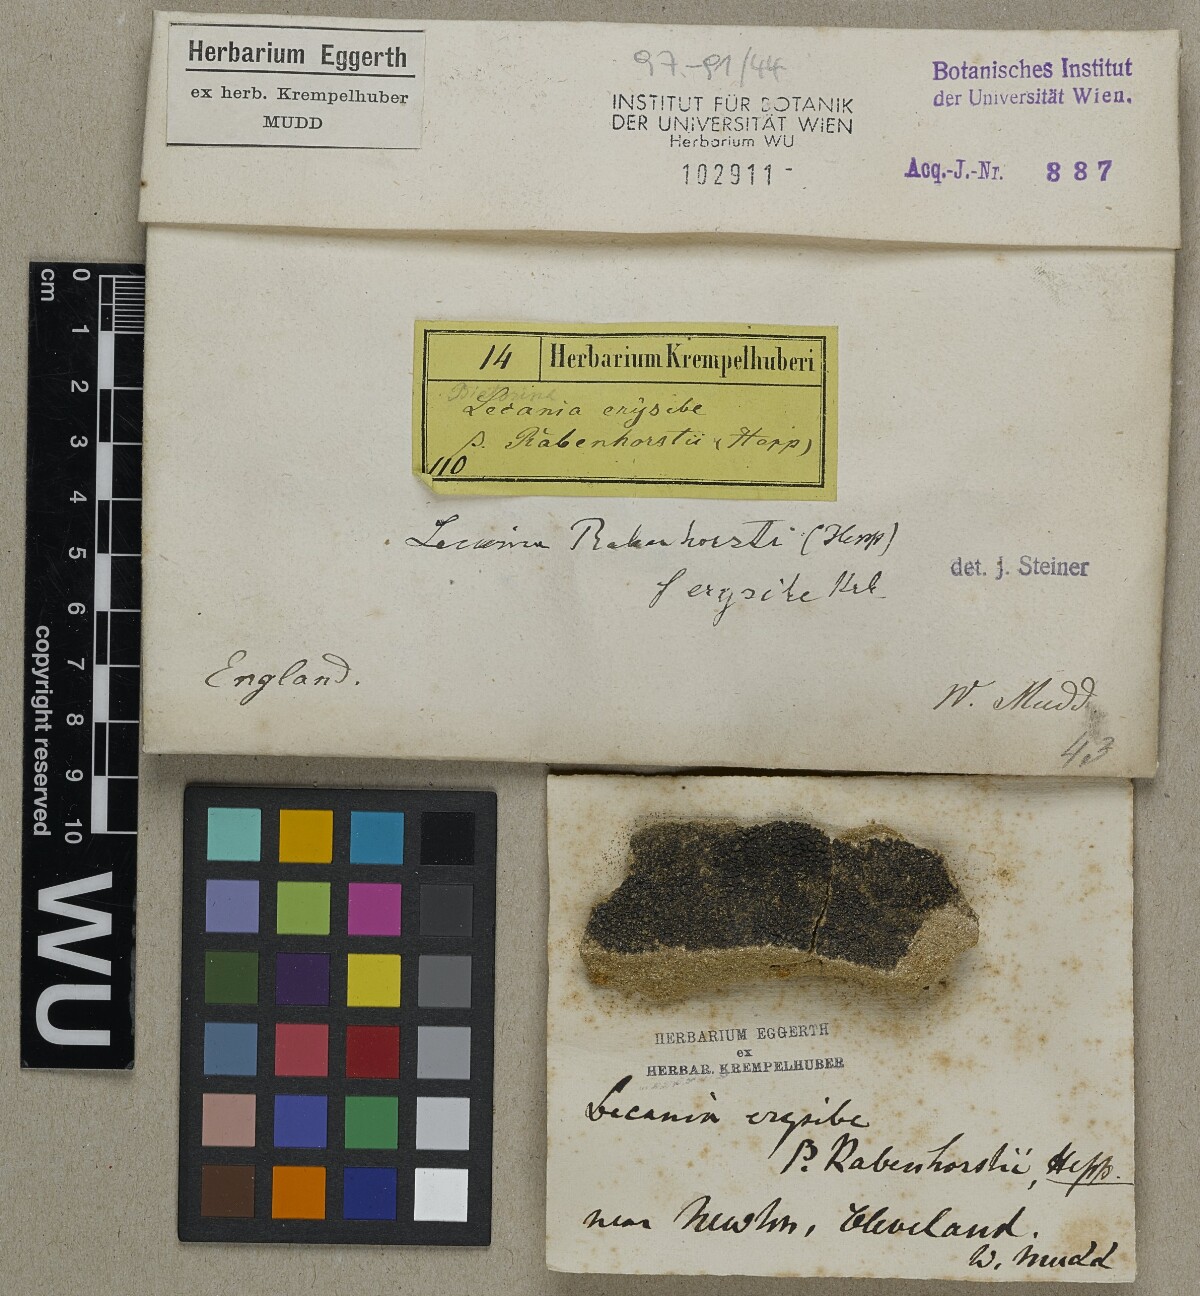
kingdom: Fungi
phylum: Ascomycota
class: Lecanoromycetes
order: Lecanorales
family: Ramalinaceae
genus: Lecania
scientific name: Lecania erysibe
